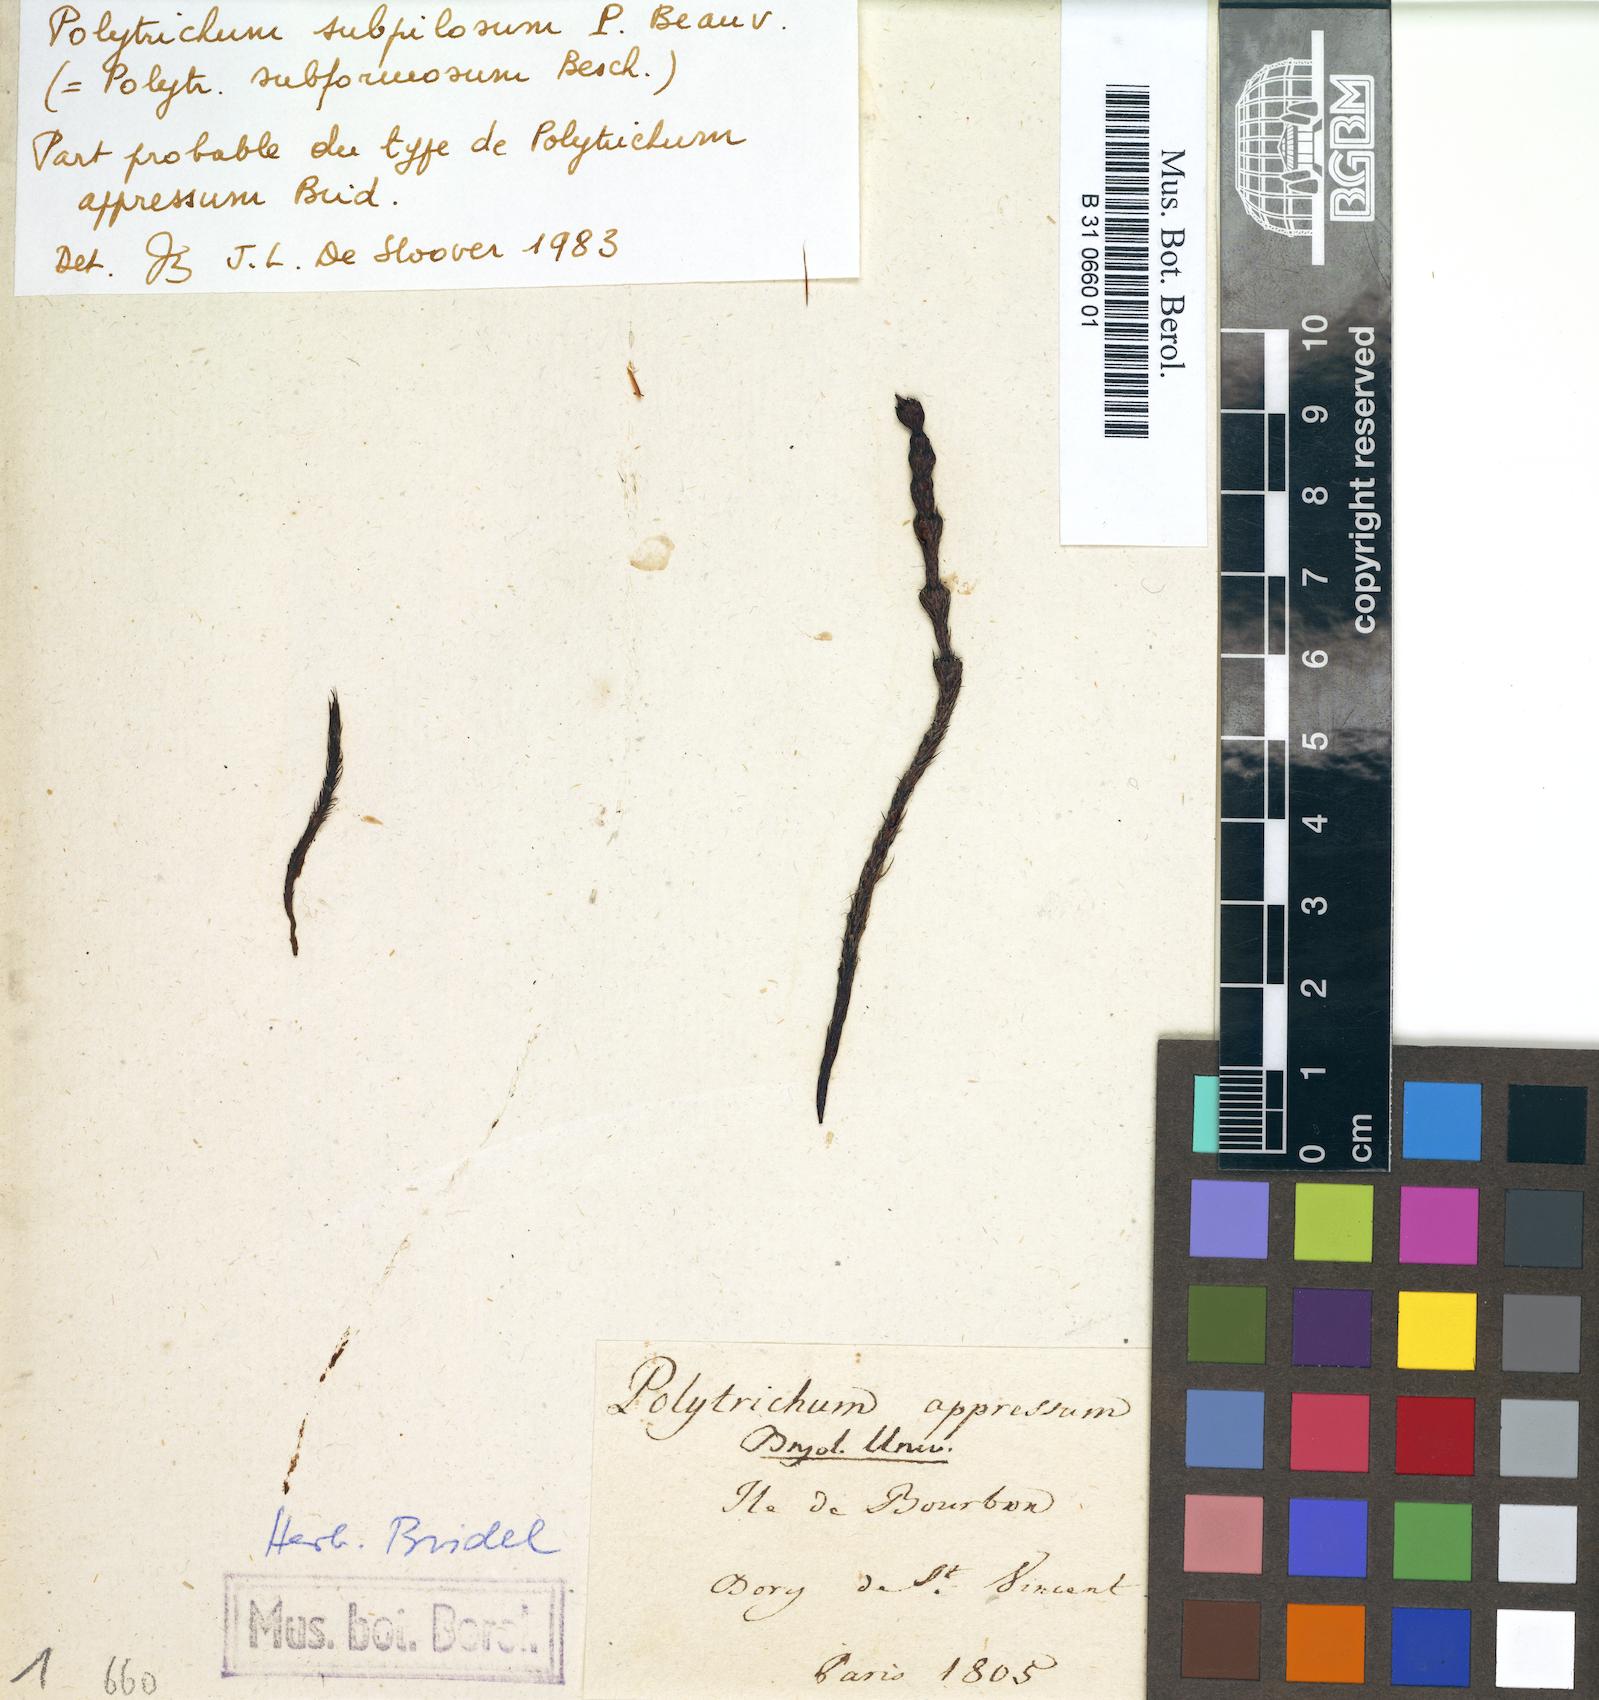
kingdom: Plantae
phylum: Bryophyta
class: Polytrichopsida
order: Polytrichales
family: Polytrichaceae
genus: Polytrichum
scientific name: Polytrichum subpilosum
